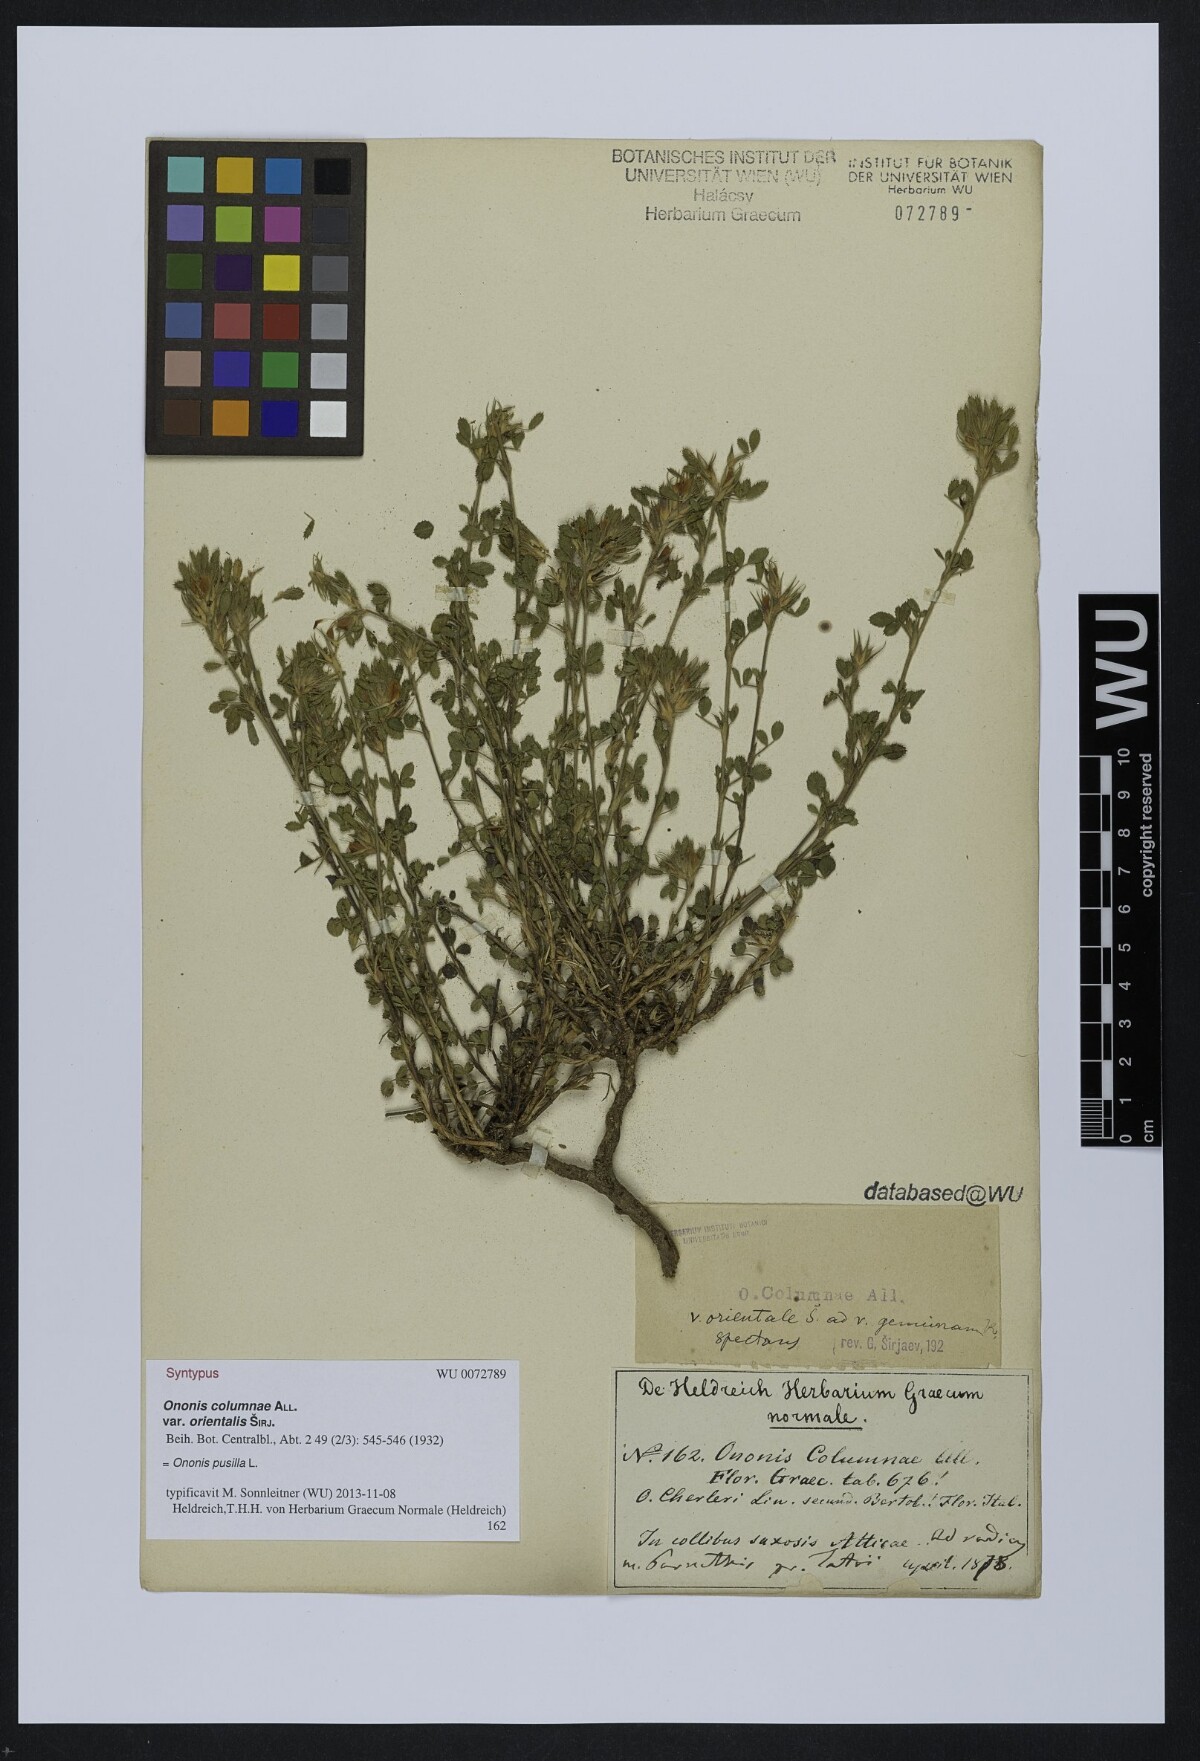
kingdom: Plantae
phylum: Tracheophyta
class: Magnoliopsida
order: Fabales
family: Fabaceae
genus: Ononis
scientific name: Ononis pusilla
